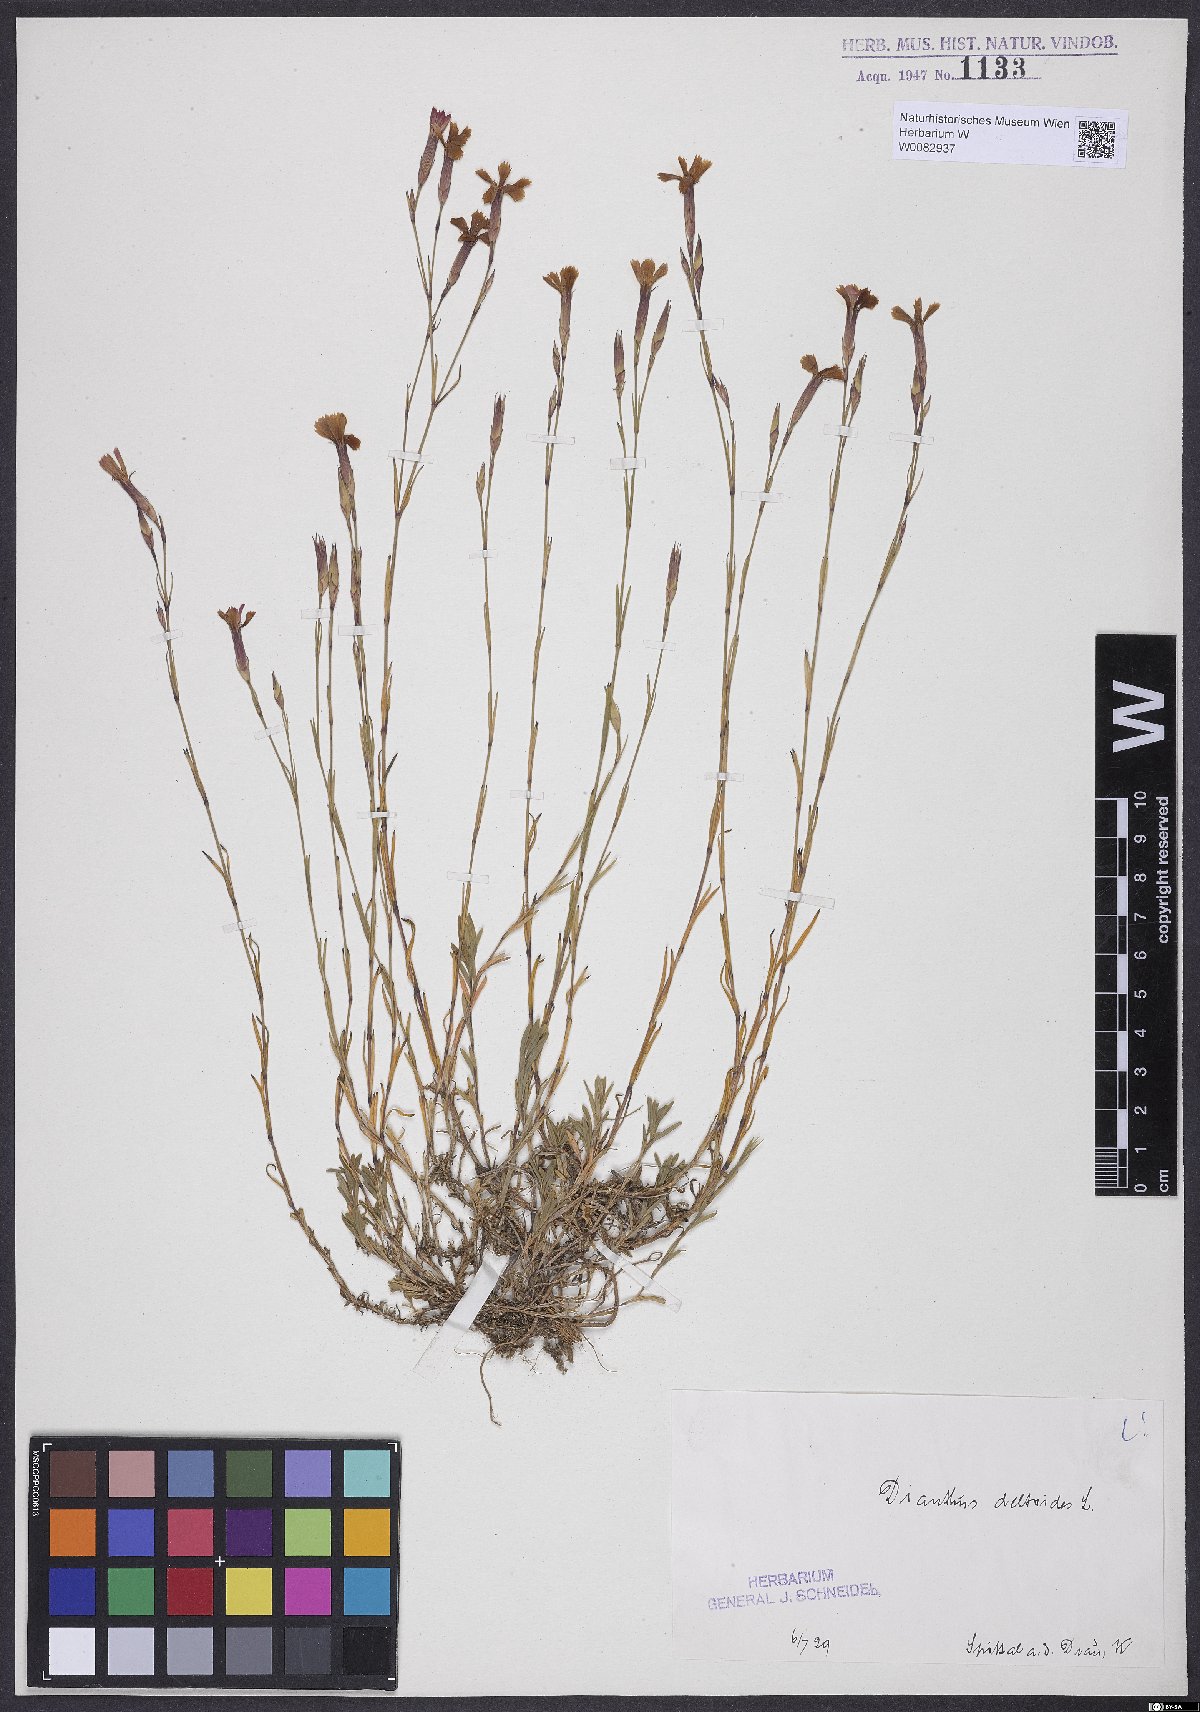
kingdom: Plantae
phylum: Tracheophyta
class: Magnoliopsida
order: Caryophyllales
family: Caryophyllaceae
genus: Dianthus
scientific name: Dianthus deltoides
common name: Maiden pink
